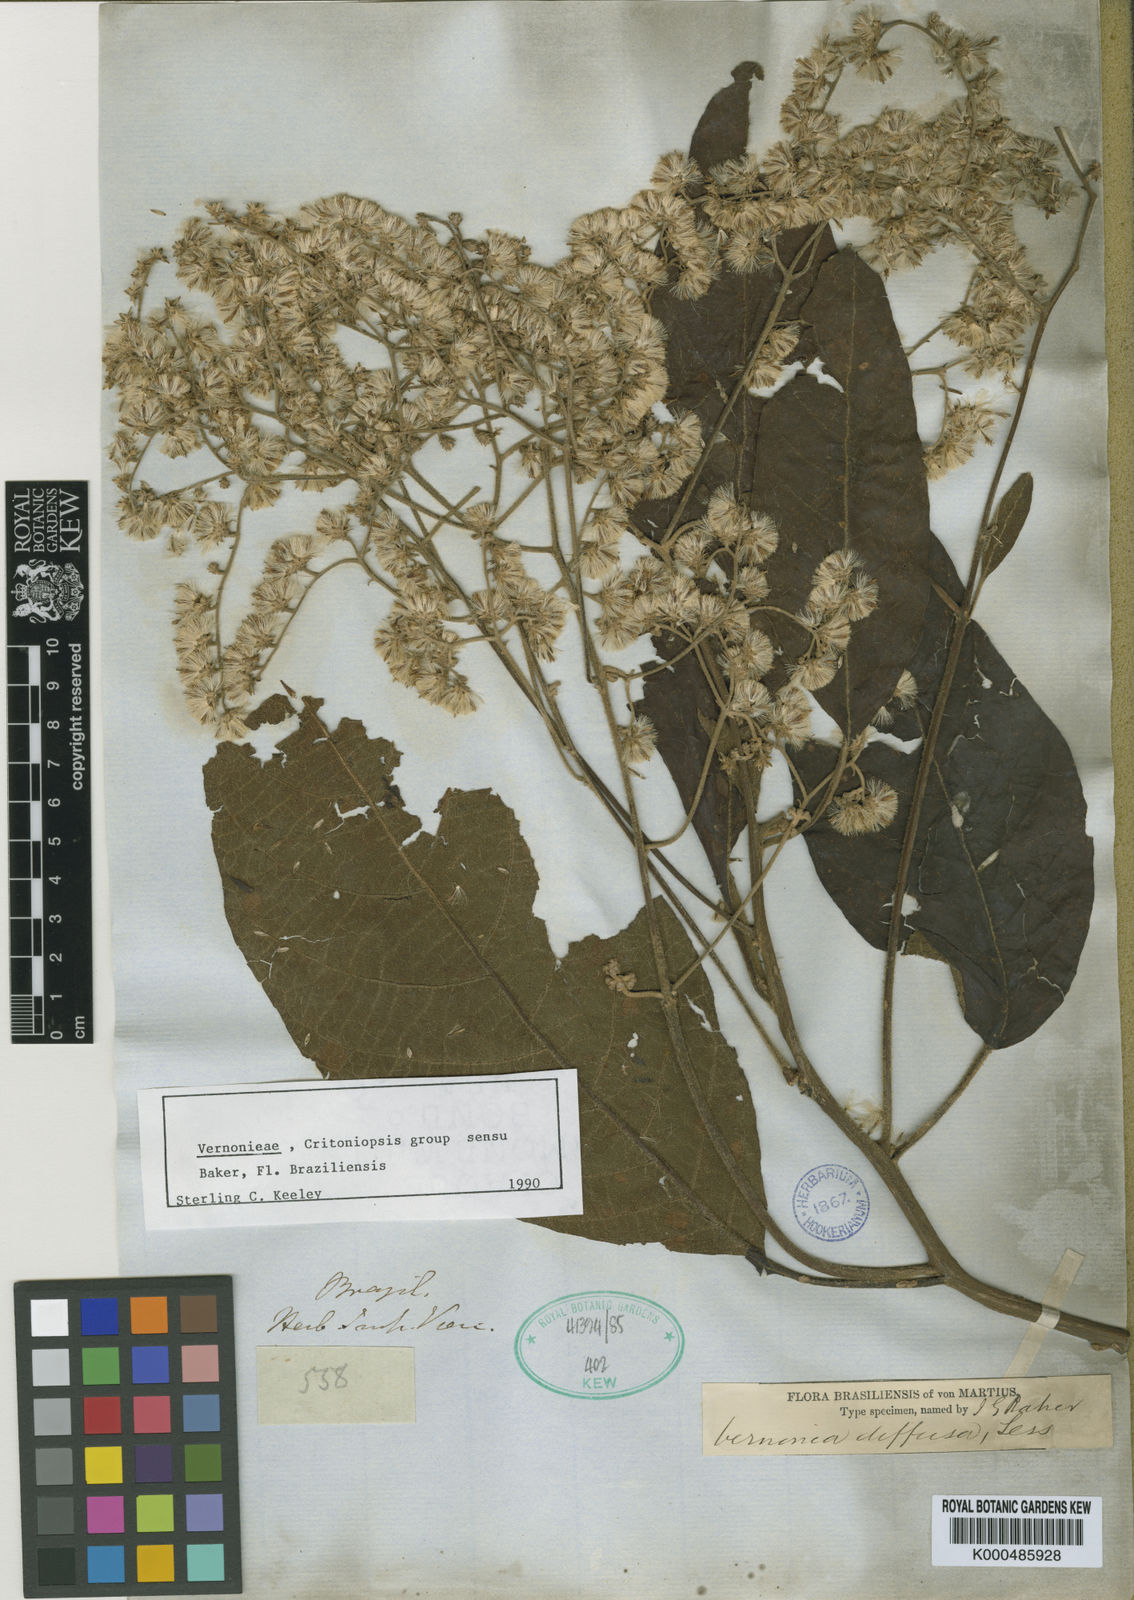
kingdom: Plantae
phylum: Tracheophyta
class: Magnoliopsida
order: Asterales
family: Asteraceae
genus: Vernonanthura
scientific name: Vernonanthura divaricata
